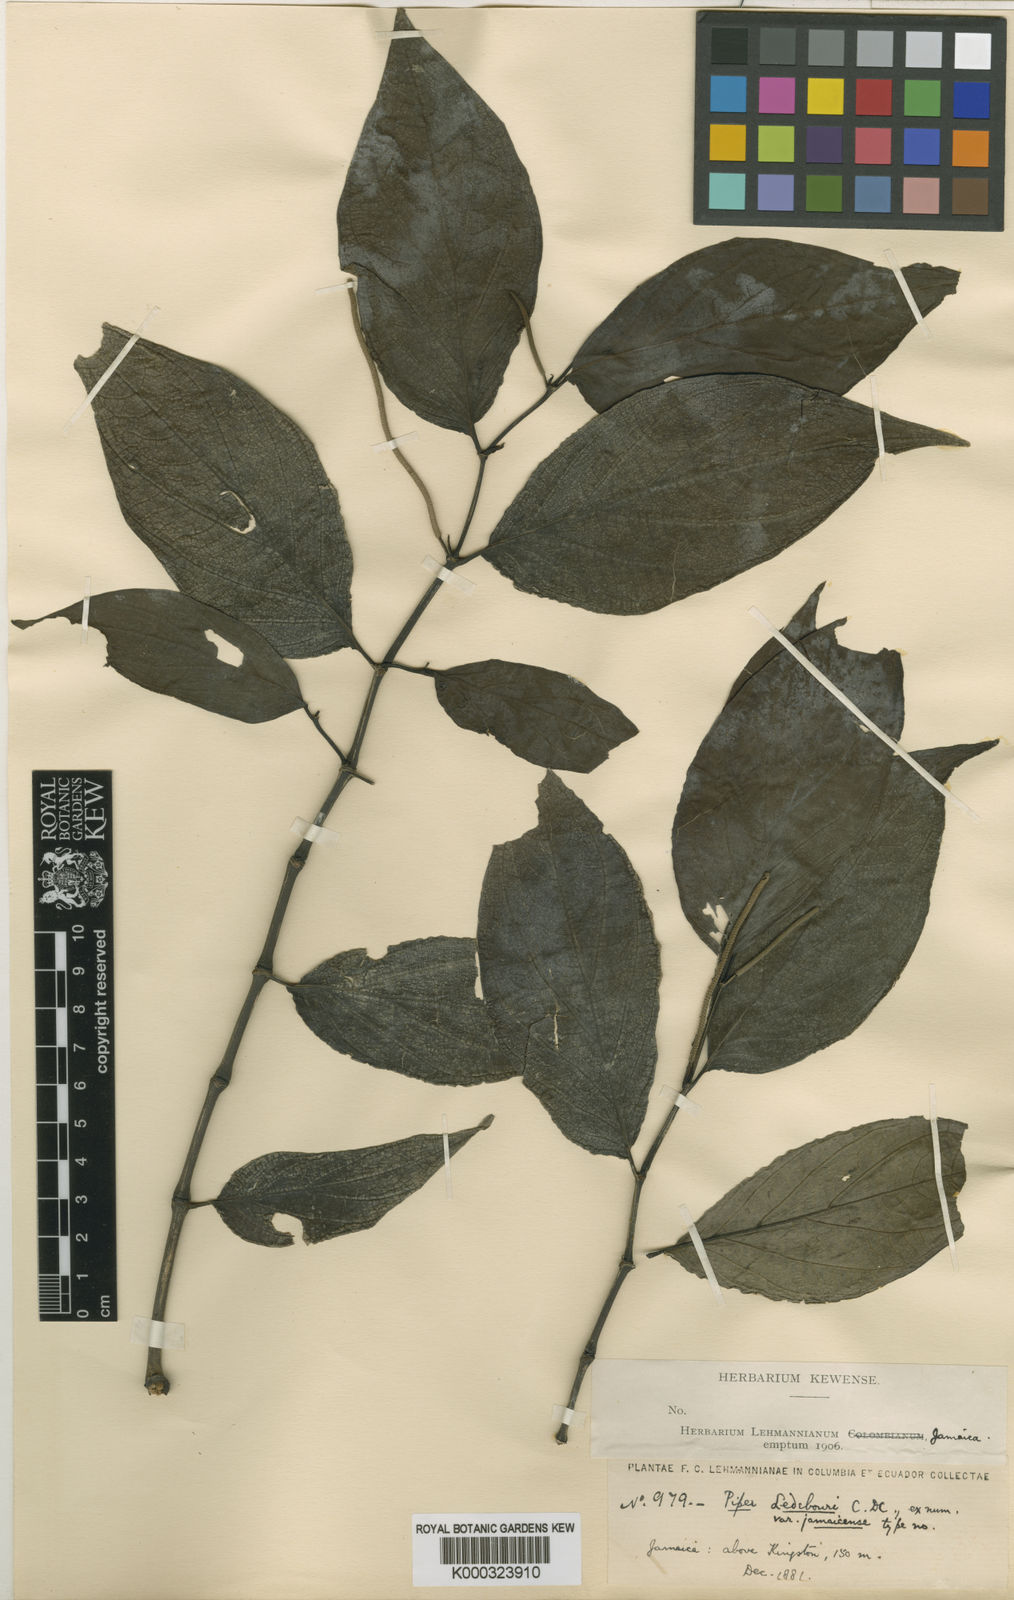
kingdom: Plantae
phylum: Tracheophyta
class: Magnoliopsida
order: Piperales
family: Piperaceae
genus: Piper
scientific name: Piper arboreum
